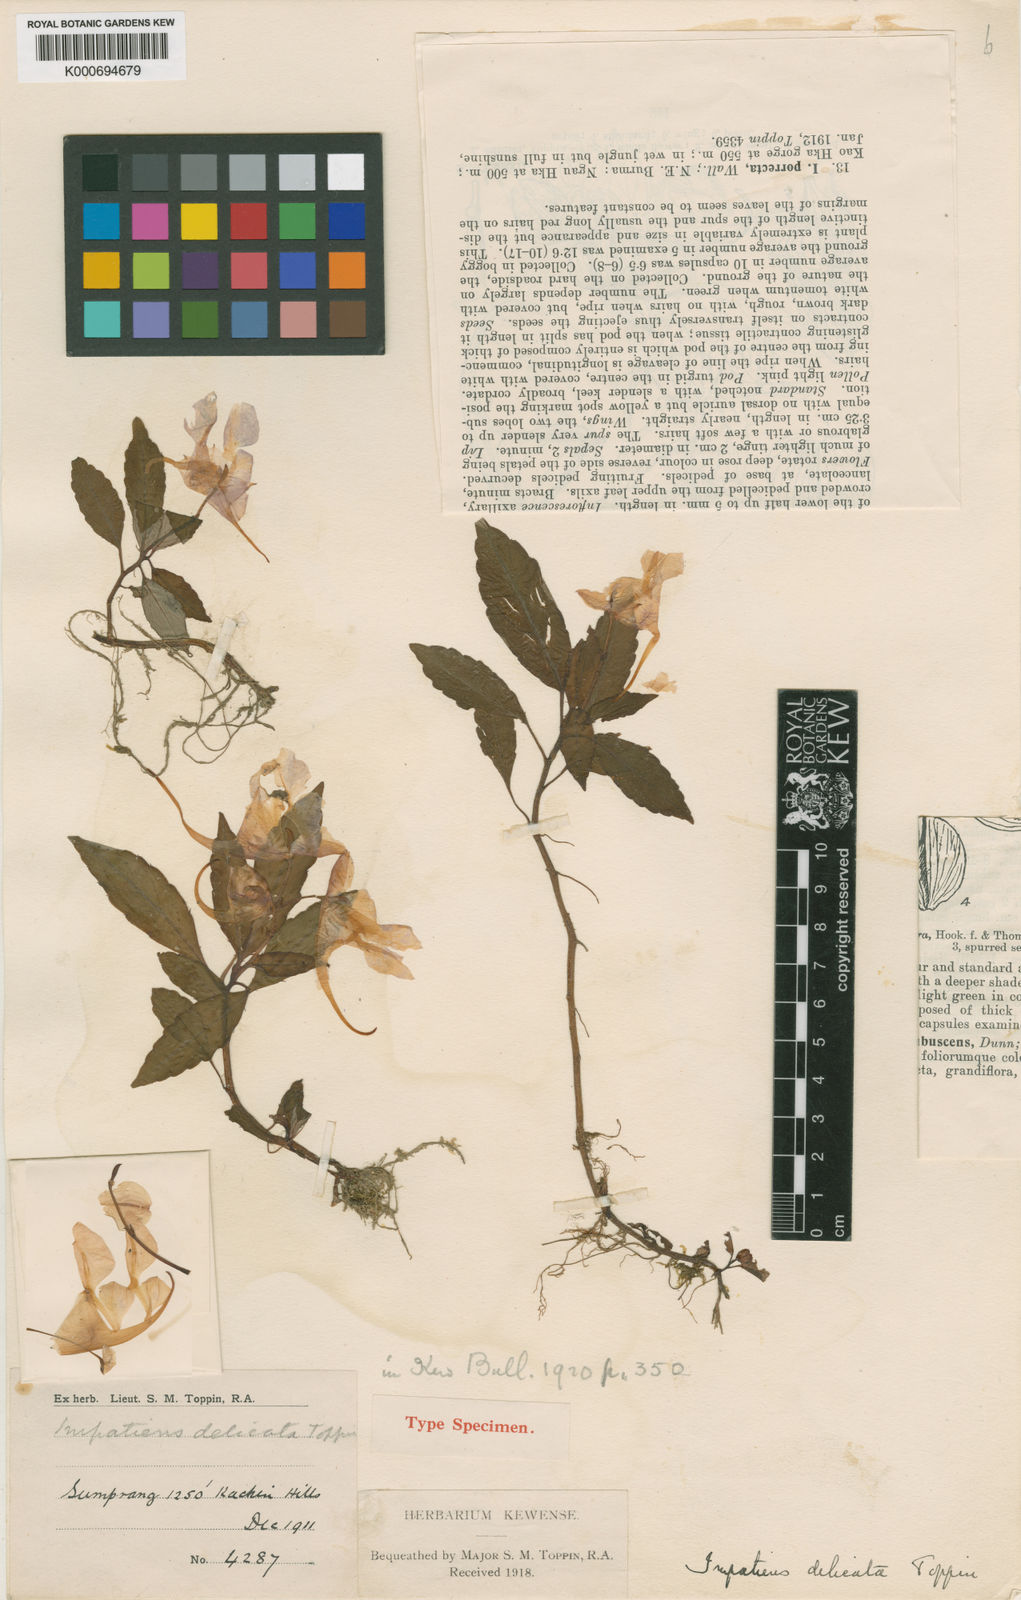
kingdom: Plantae
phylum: Tracheophyta
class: Magnoliopsida
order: Ericales
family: Balsaminaceae
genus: Impatiens
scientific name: Impatiens delicata
